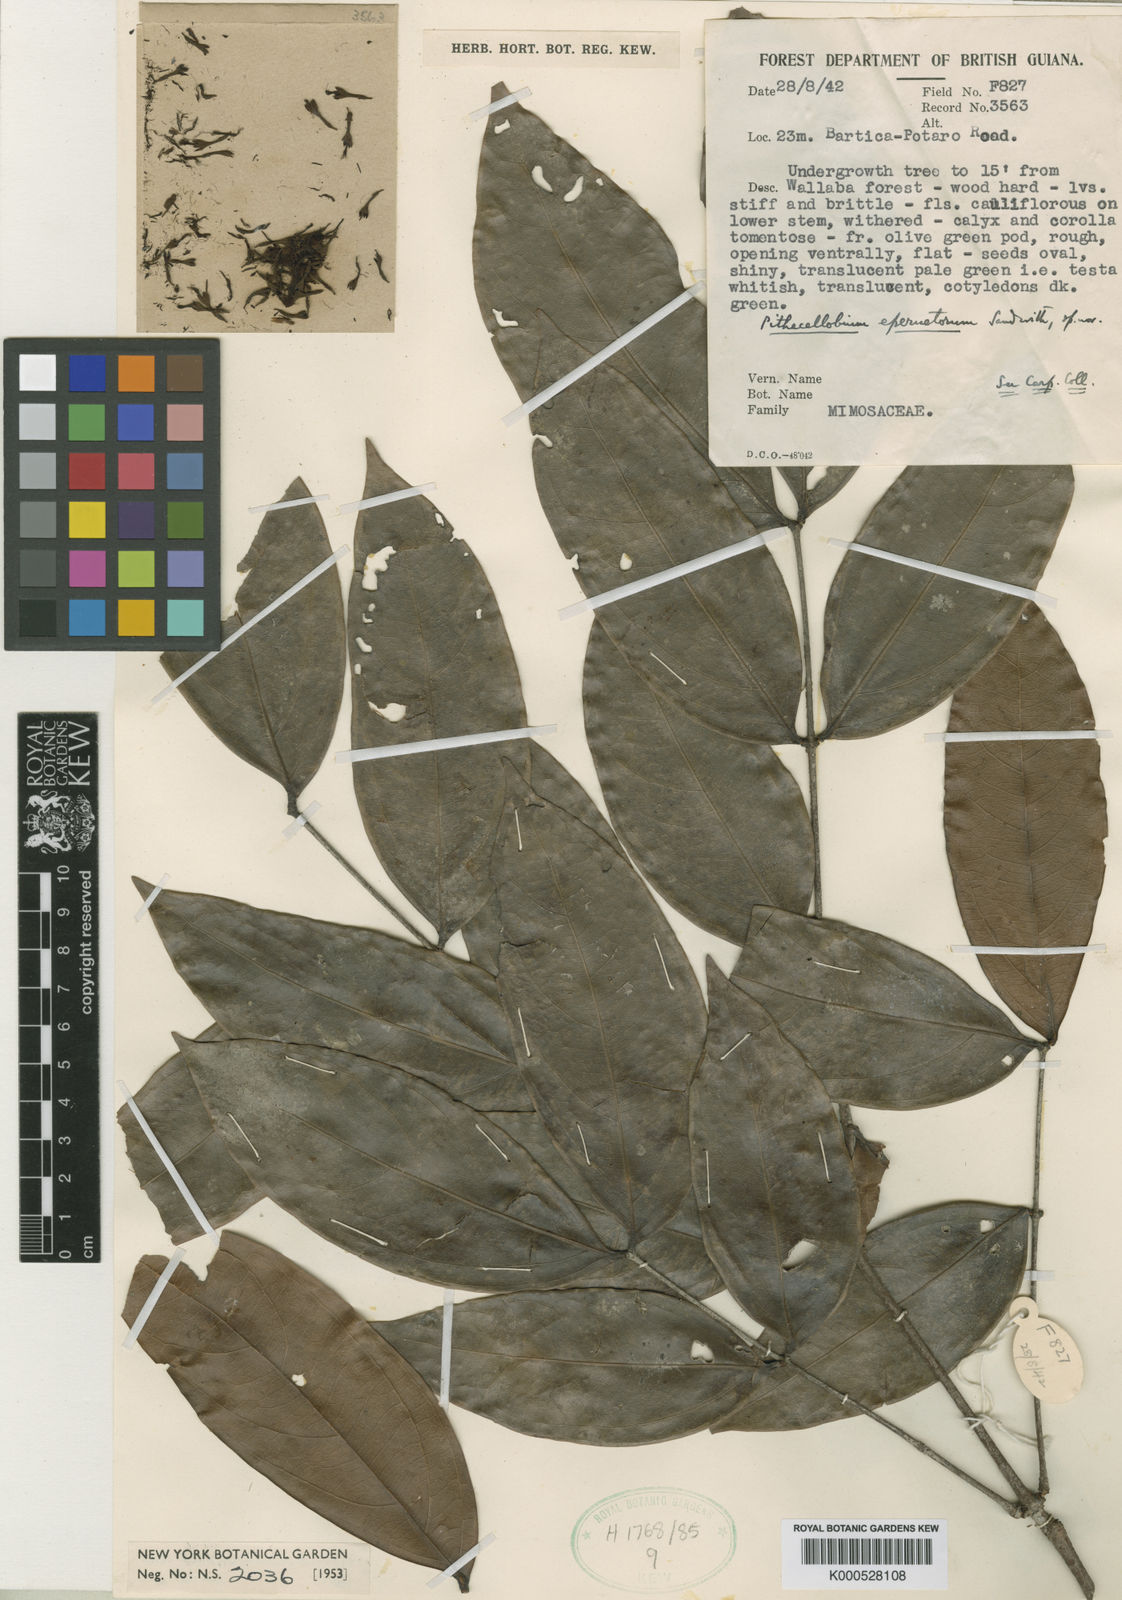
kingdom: Plantae
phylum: Tracheophyta
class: Magnoliopsida
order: Fabales
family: Fabaceae
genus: Zygia
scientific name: Zygia eperuetorum
